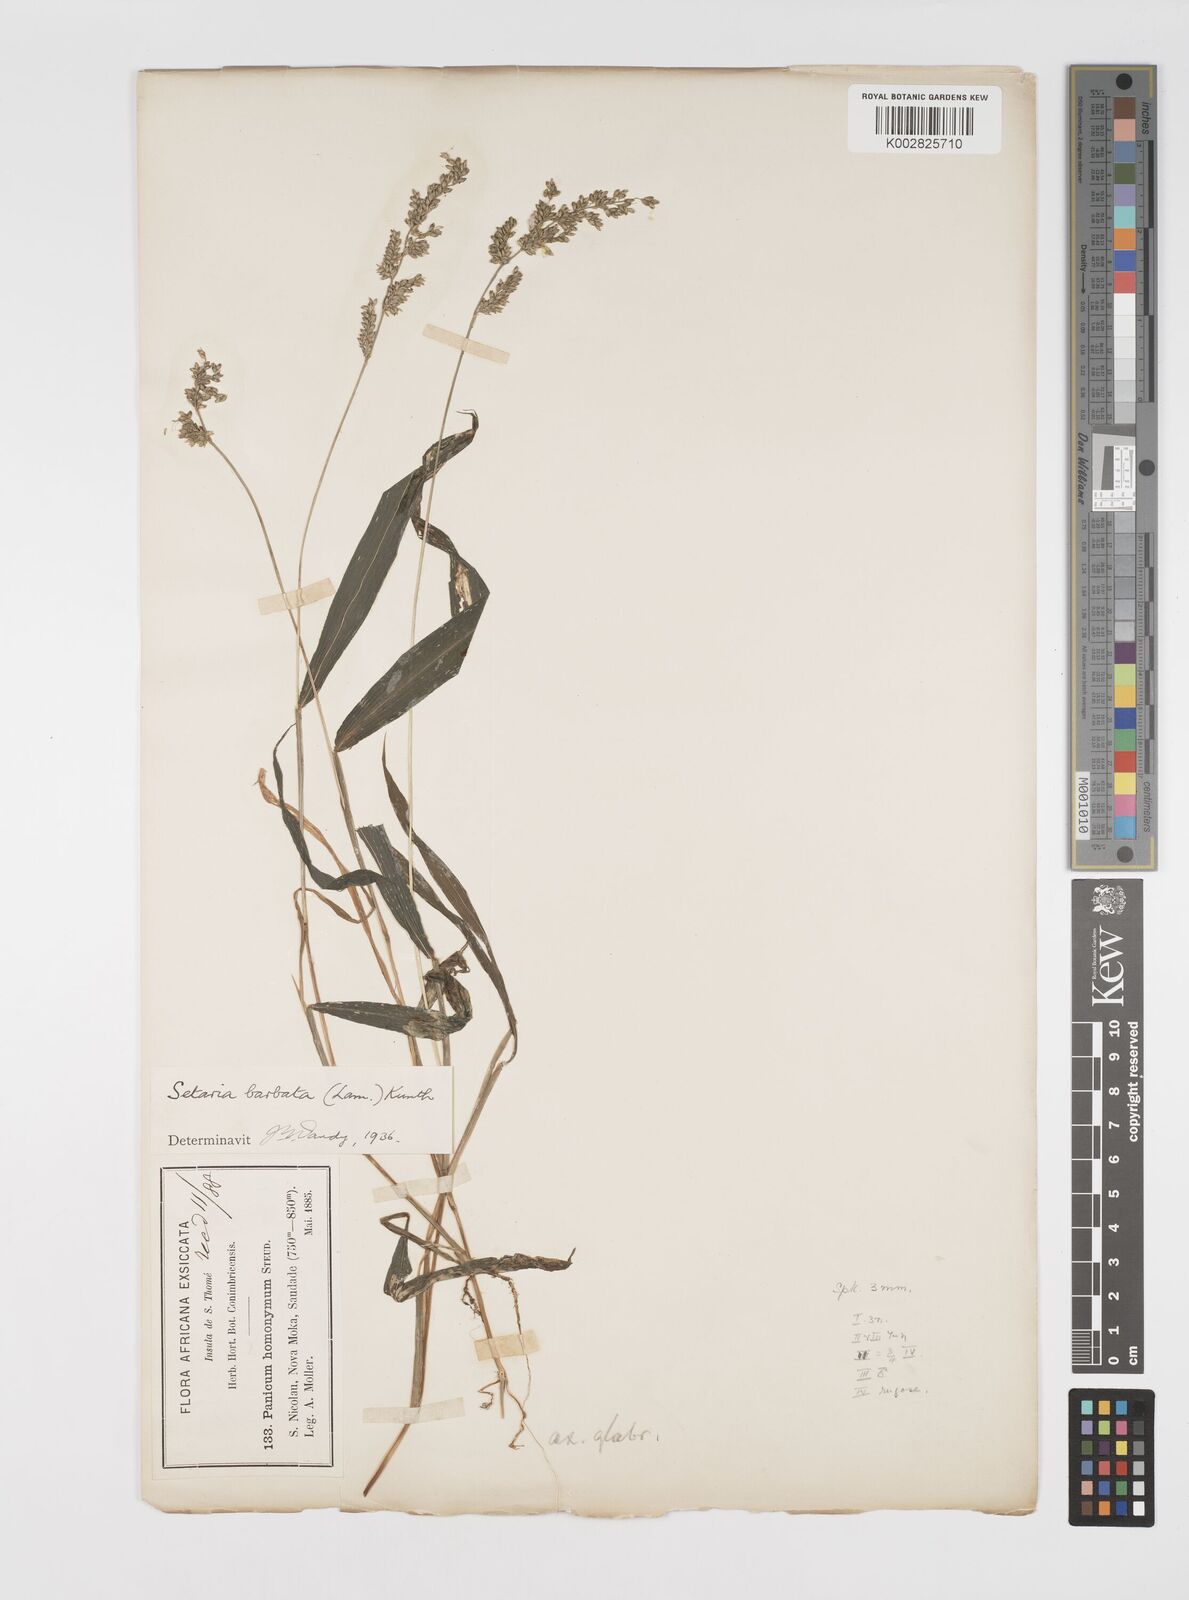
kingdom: Plantae
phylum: Tracheophyta
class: Liliopsida
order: Poales
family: Poaceae
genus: Setaria
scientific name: Setaria barbata
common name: East indian bristlegrass
